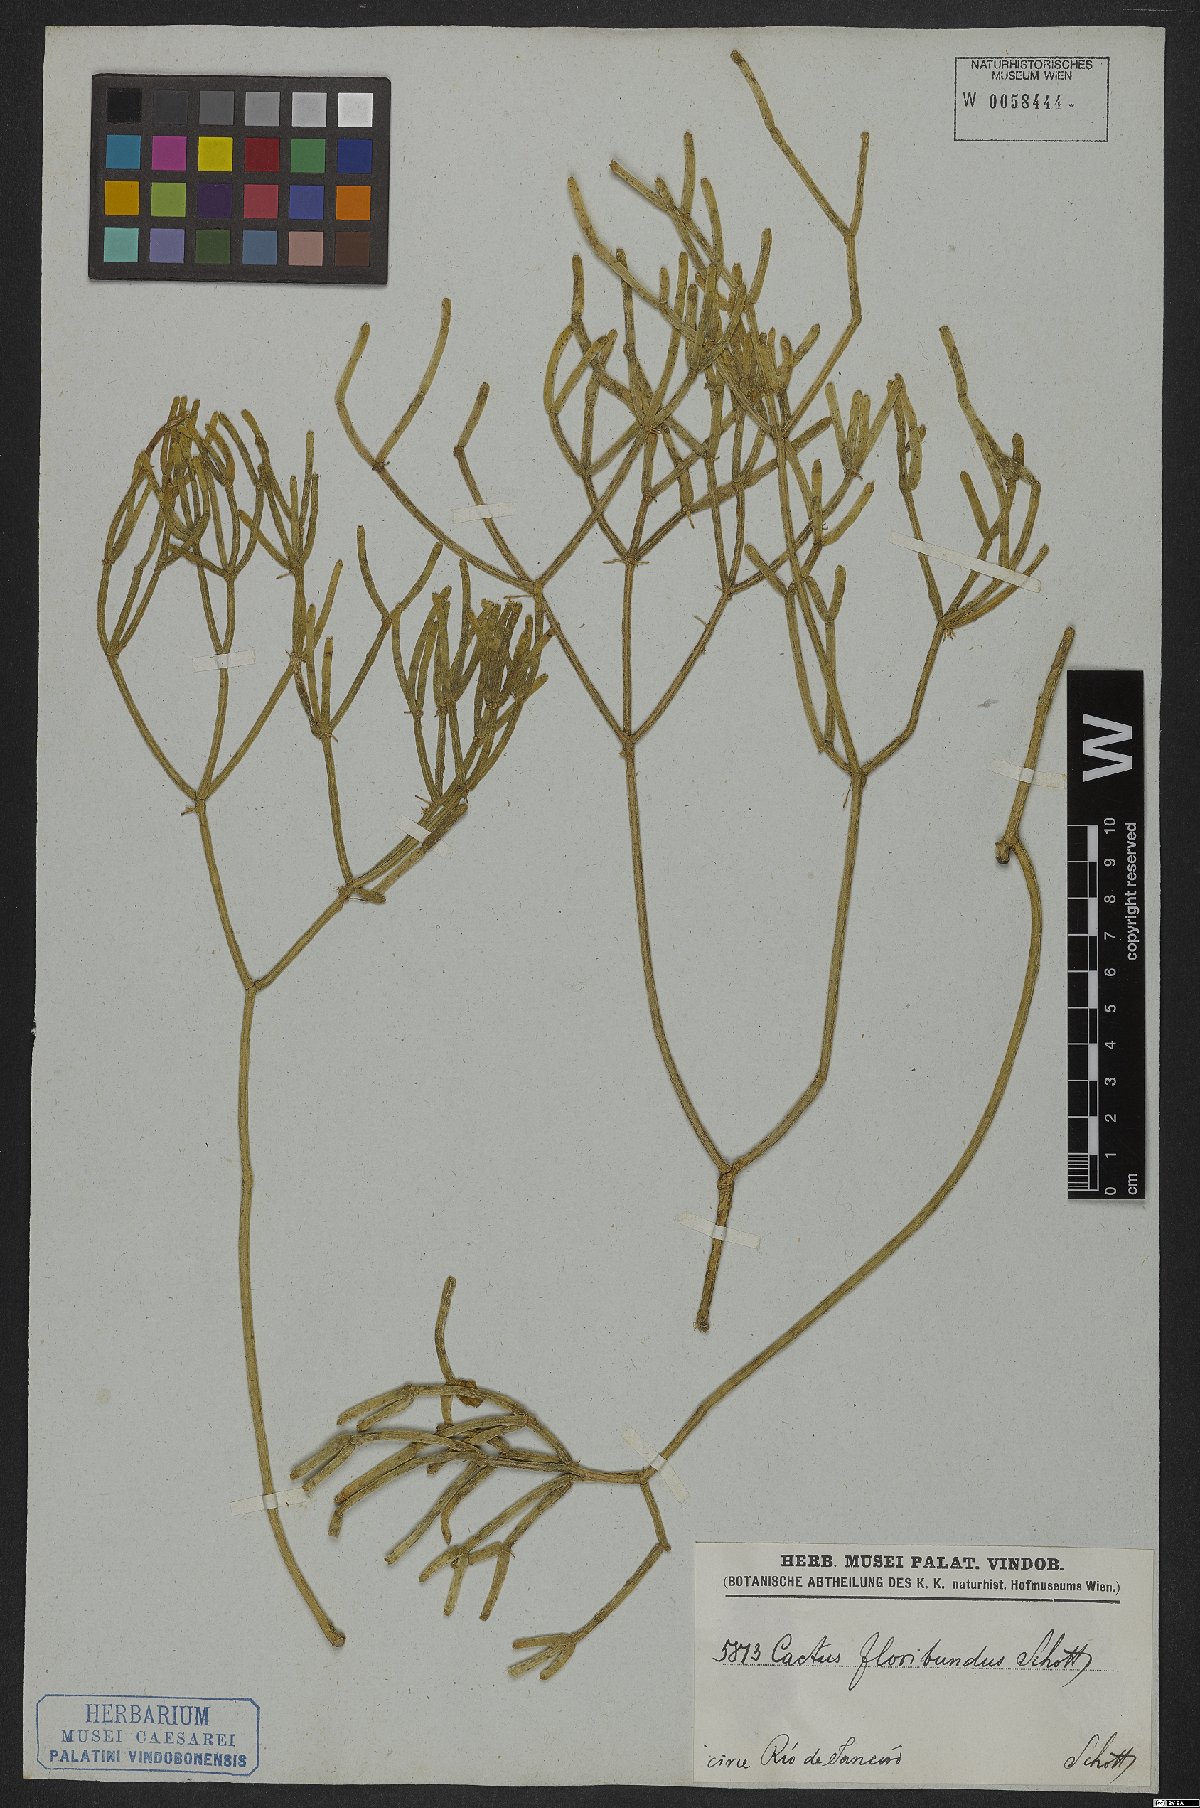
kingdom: Plantae
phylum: Tracheophyta
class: Magnoliopsida
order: Caryophyllales
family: Cactaceae
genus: Rhipsalis
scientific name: Rhipsalis teres
